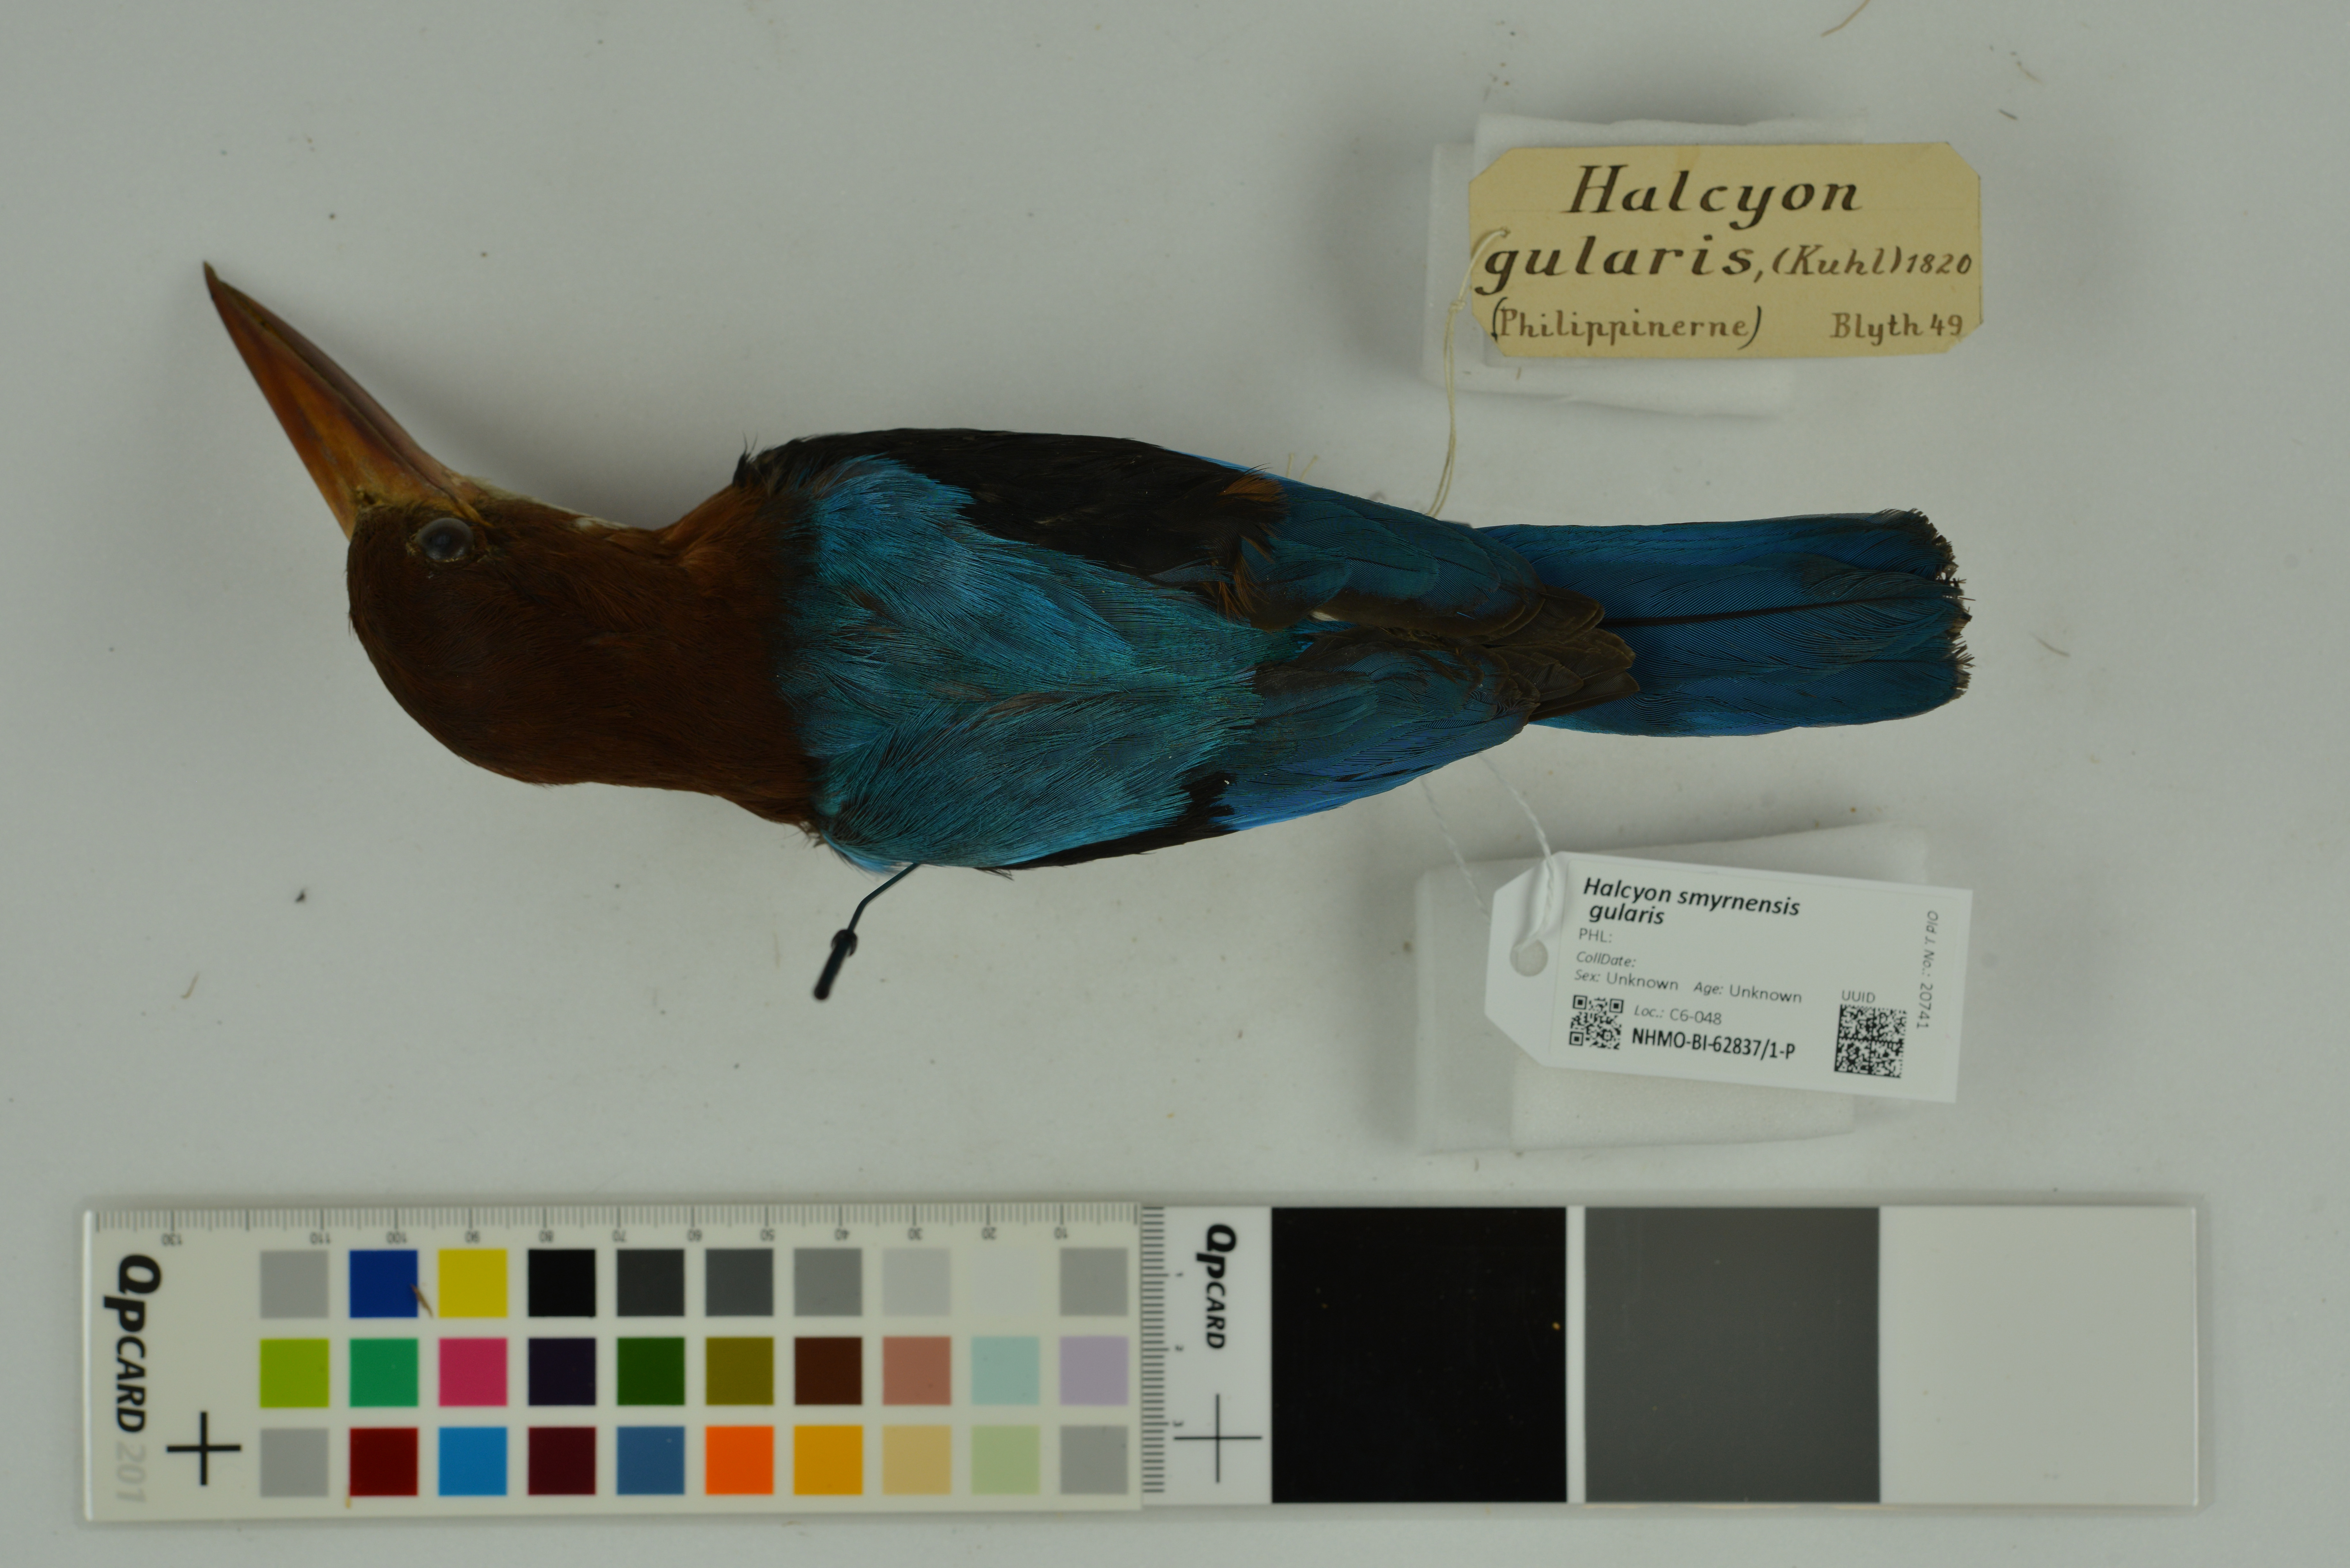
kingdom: Animalia
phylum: Chordata
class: Aves
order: Coraciiformes
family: Alcedinidae
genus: Halcyon
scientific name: Halcyon gularis
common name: Brown-breasted kingfisher
